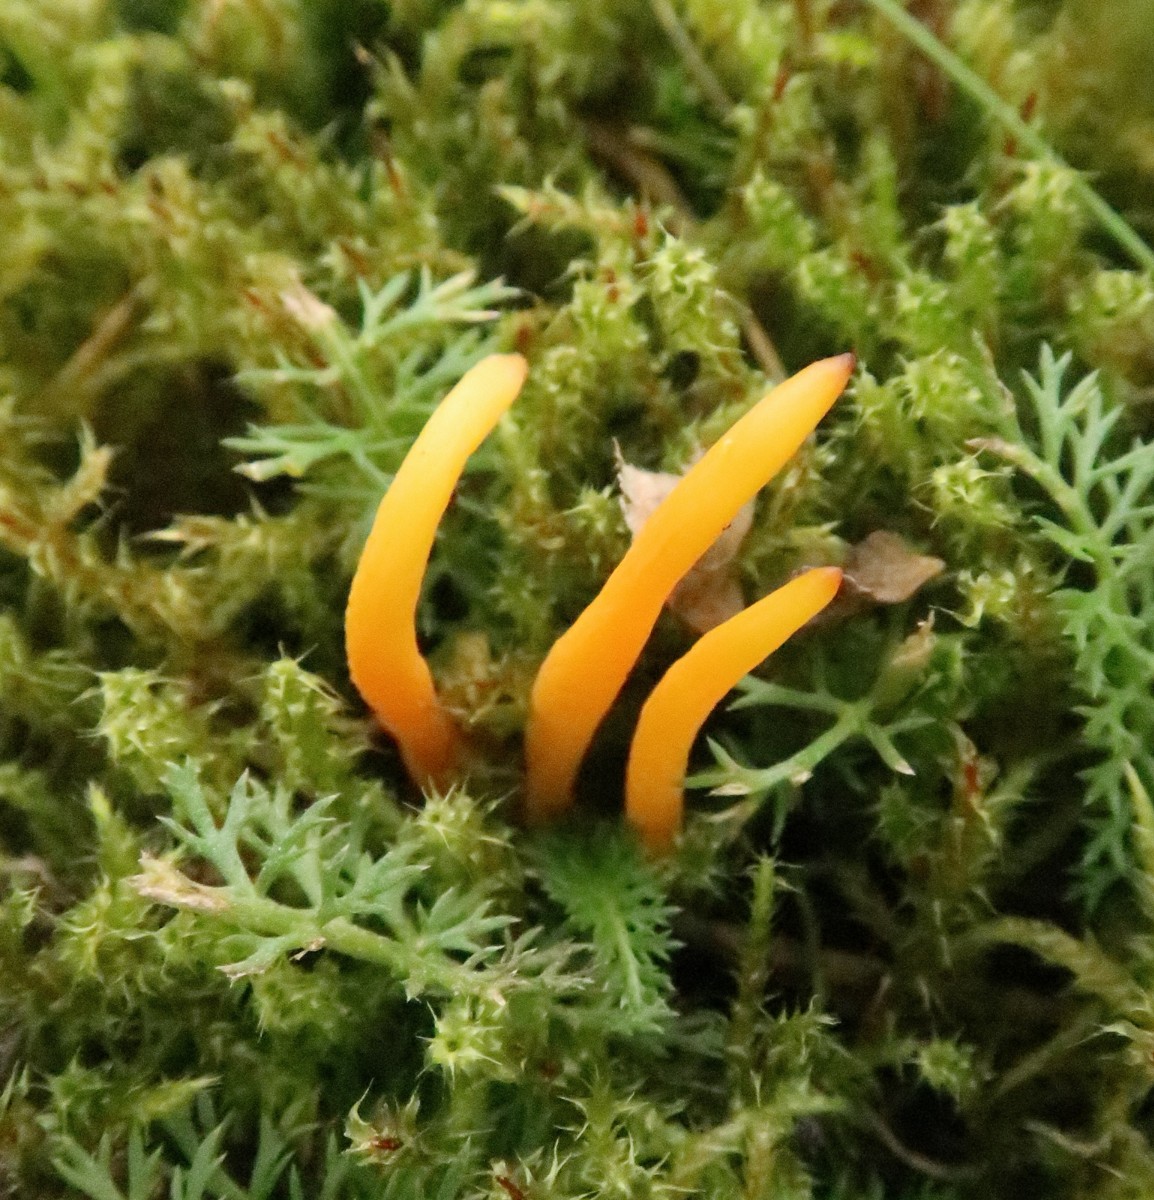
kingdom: Fungi
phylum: Basidiomycota
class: Agaricomycetes
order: Agaricales
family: Clavariaceae
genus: Clavulinopsis
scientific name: Clavulinopsis
